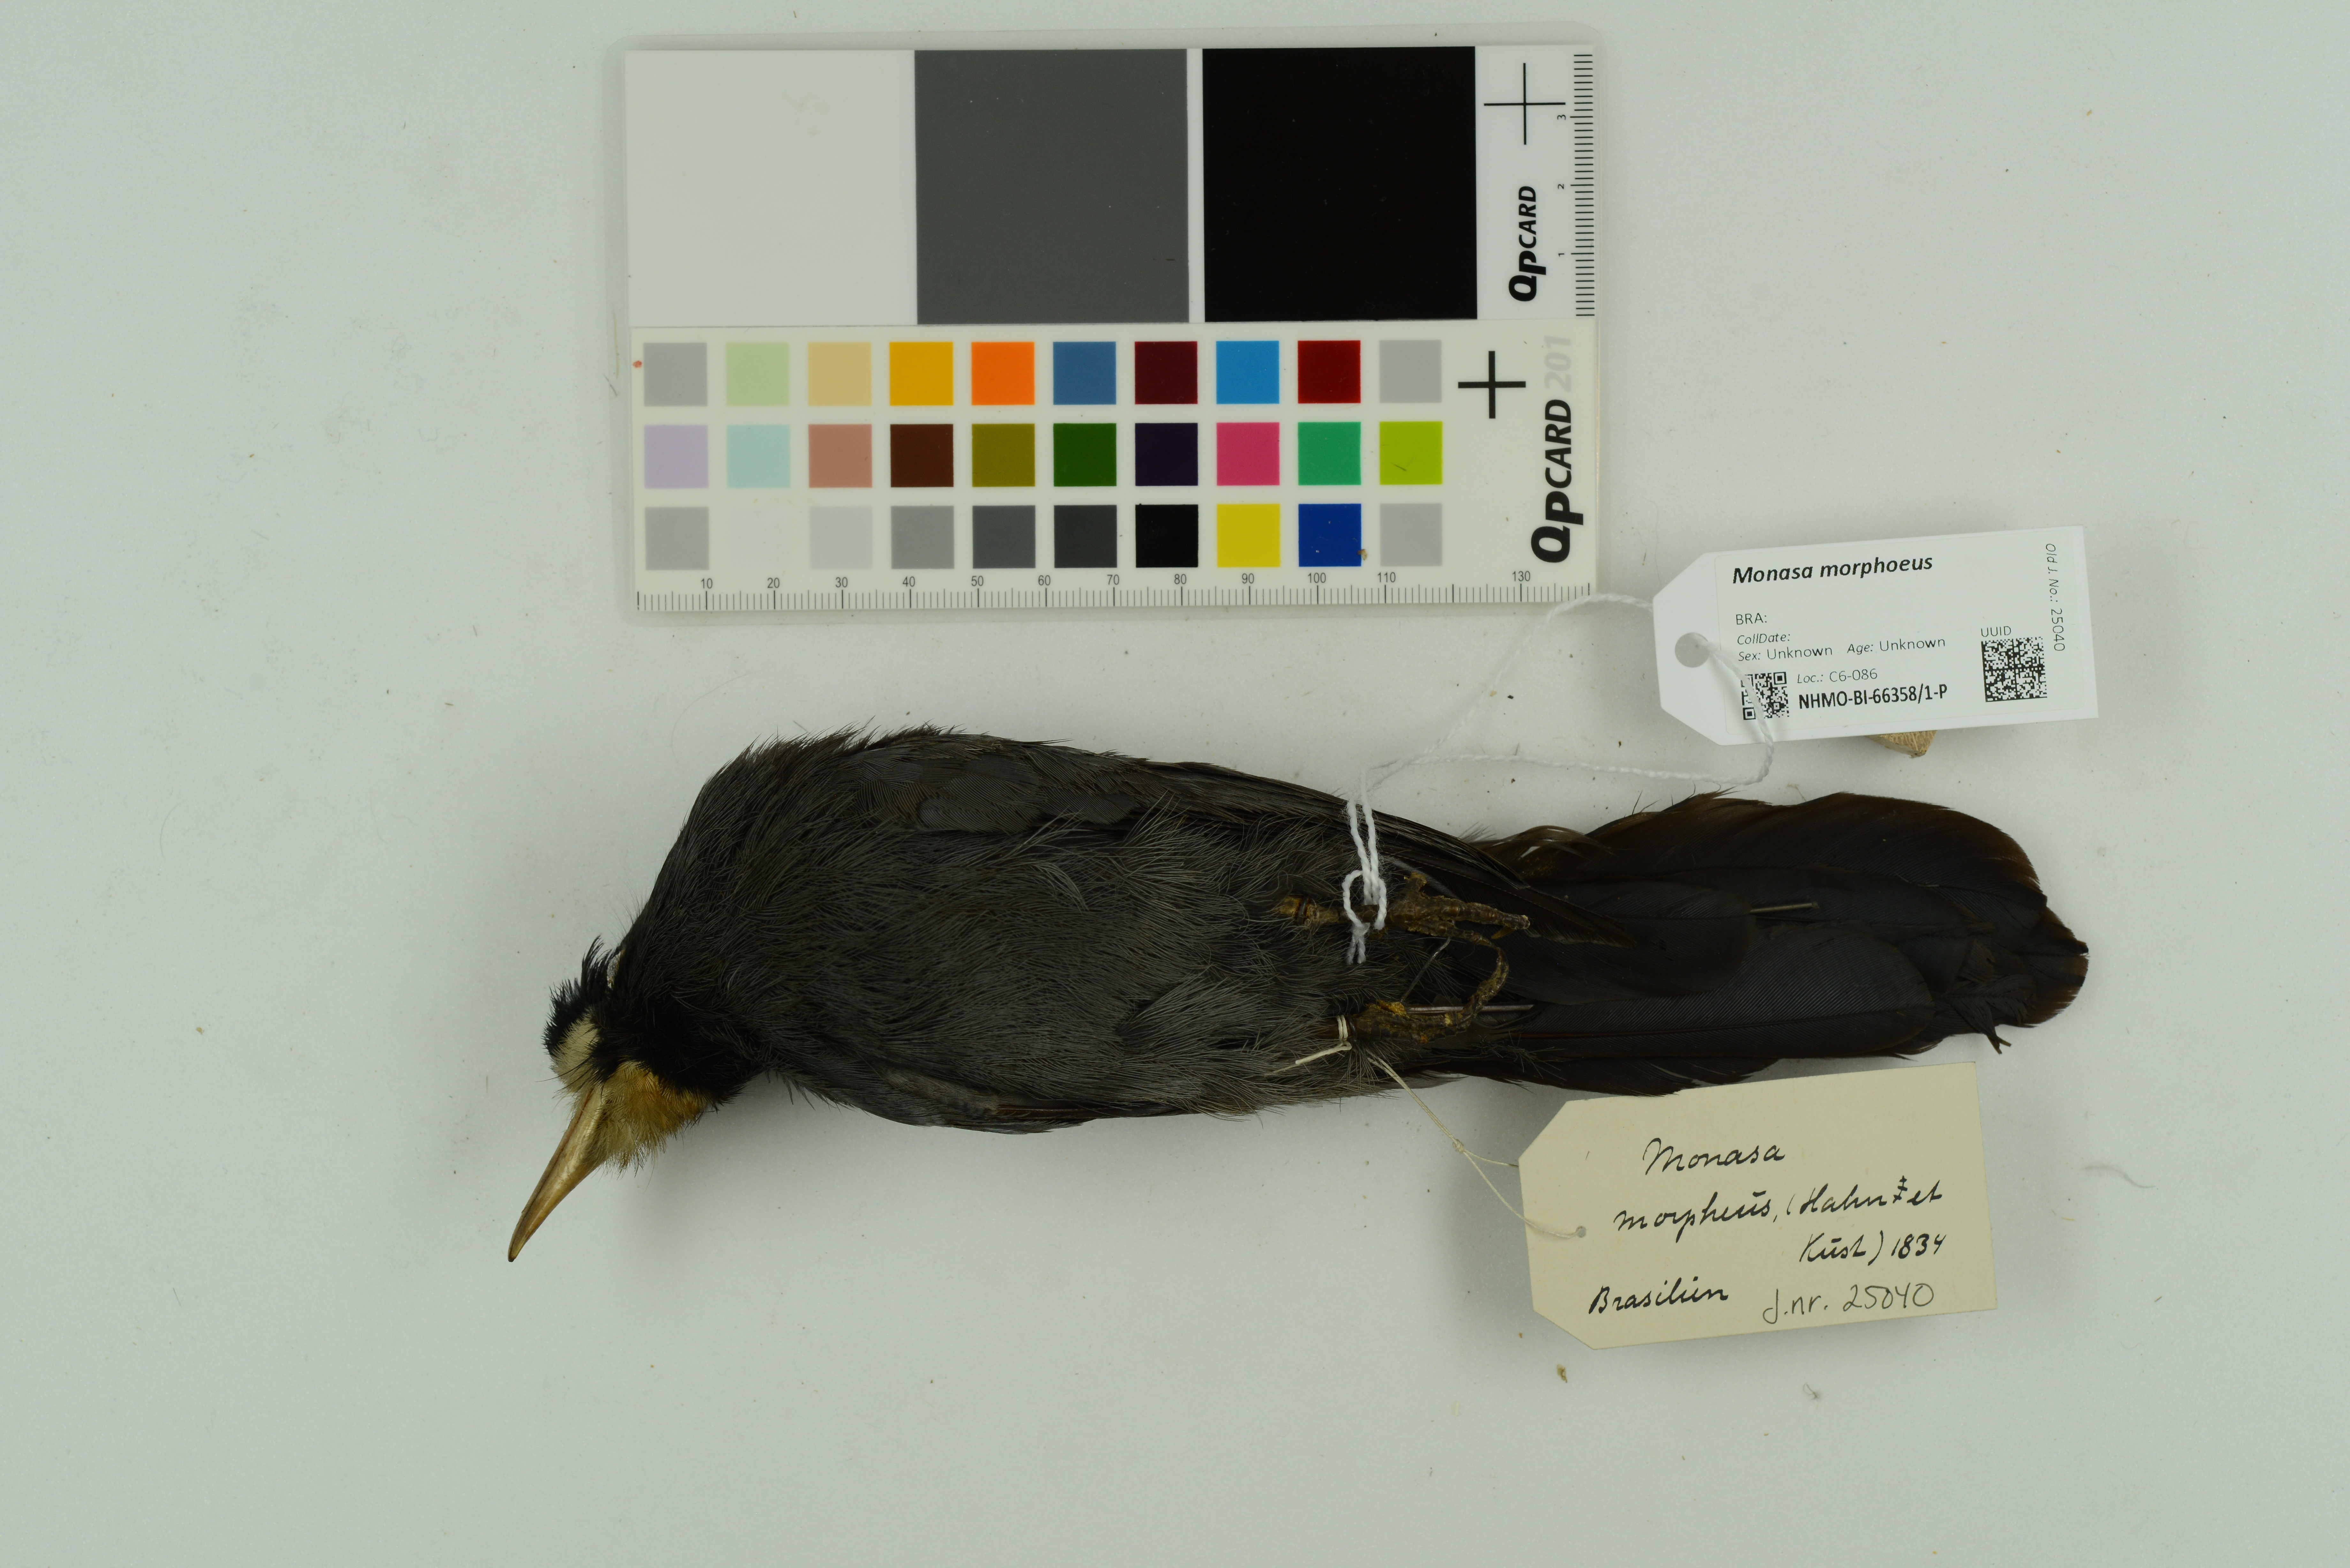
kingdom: Animalia
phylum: Chordata
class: Aves
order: Piciformes
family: Bucconidae
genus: Monasa
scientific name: Monasa morphoeus
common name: White-fronted nunbird
